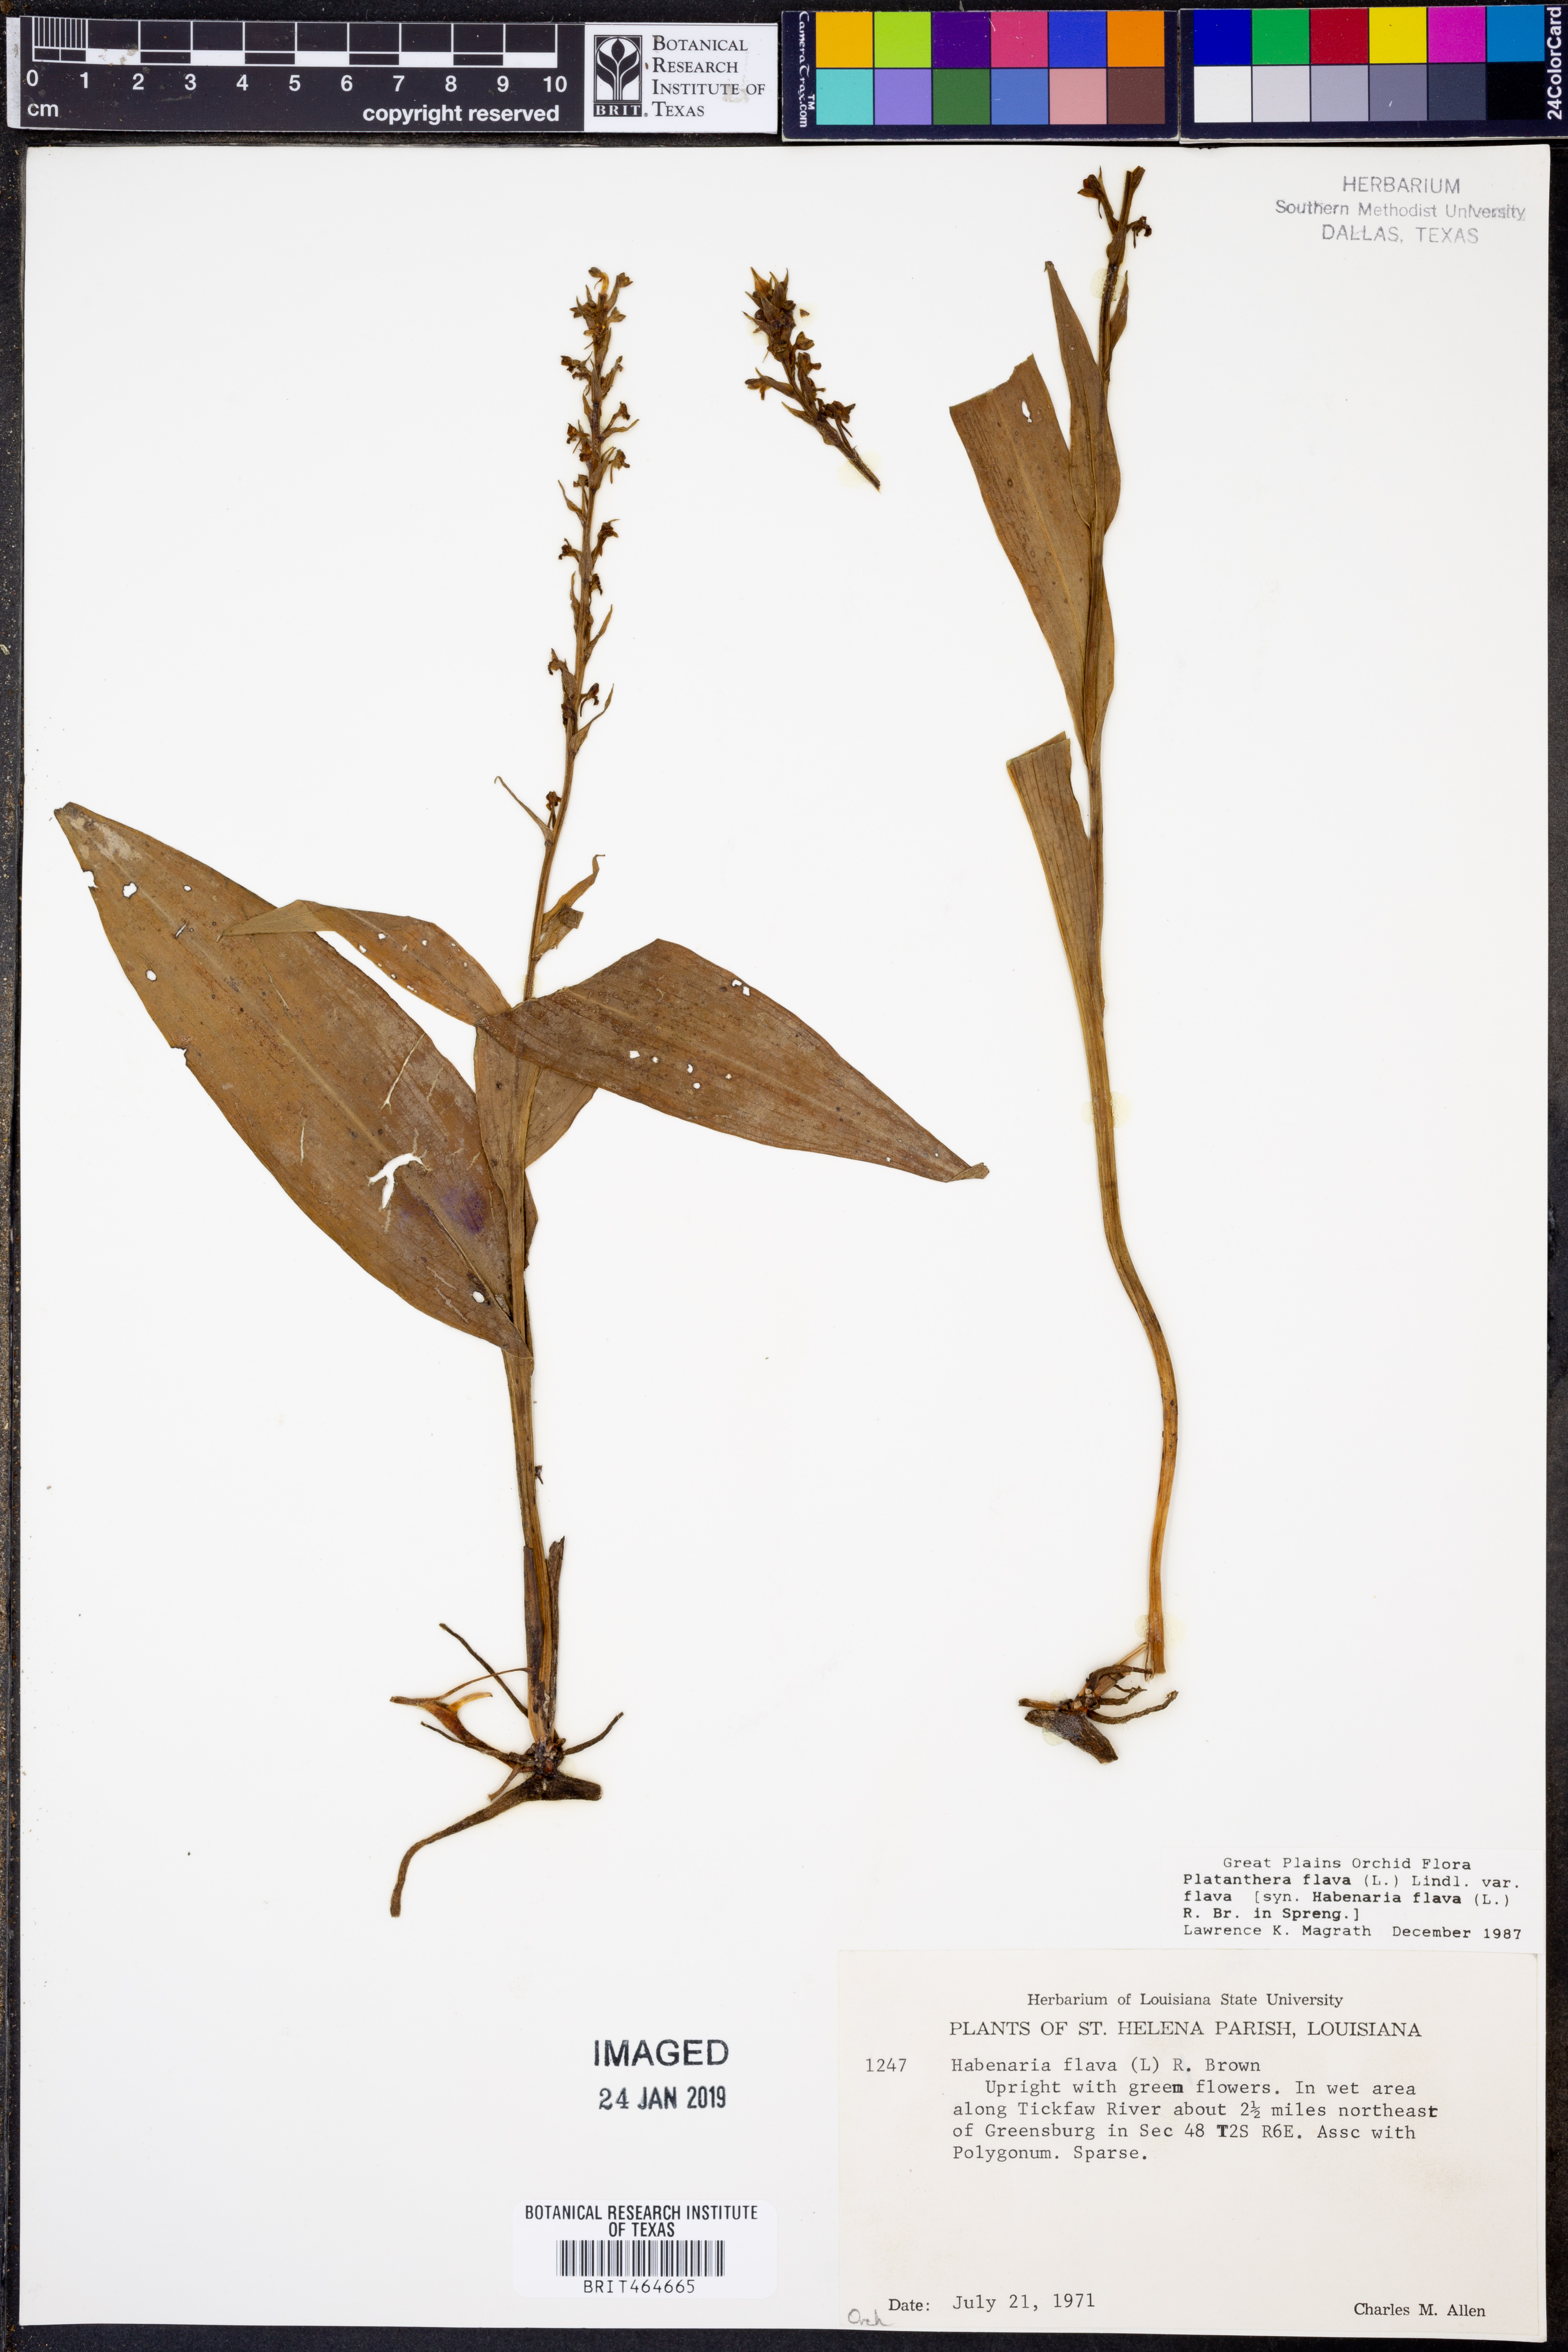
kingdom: Plantae
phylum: Tracheophyta
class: Liliopsida
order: Asparagales
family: Orchidaceae
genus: Platanthera
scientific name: Platanthera flava
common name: Gypsy-spikes
